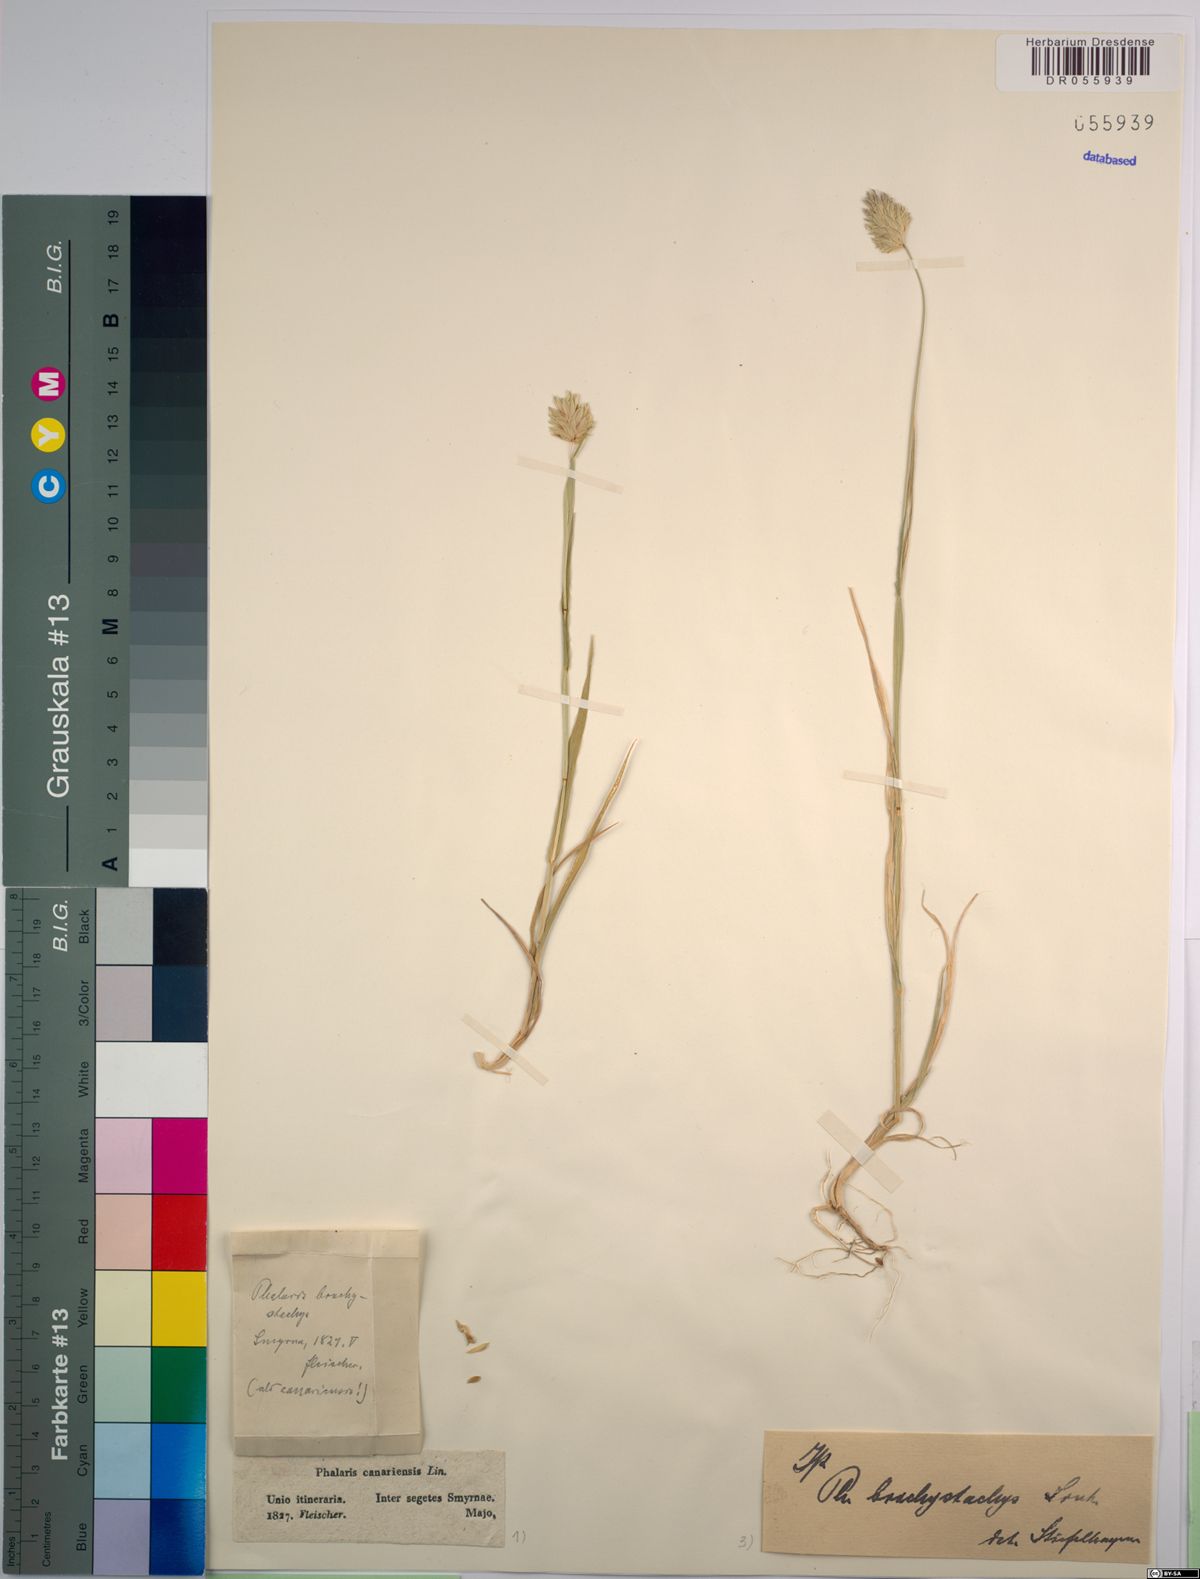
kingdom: Plantae
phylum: Tracheophyta
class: Liliopsida
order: Poales
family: Poaceae
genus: Phalaris
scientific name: Phalaris brachystachys
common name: Confused canary-grass
